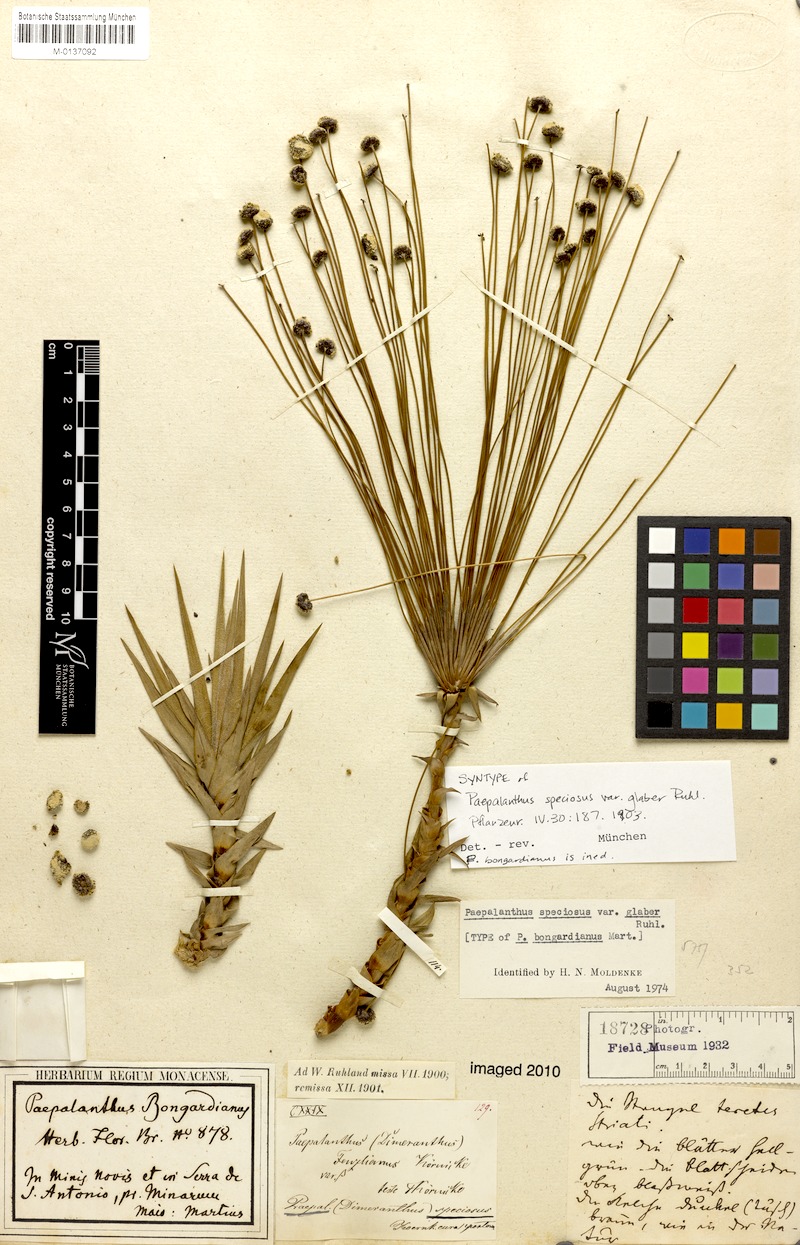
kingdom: Plantae
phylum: Tracheophyta
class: Liliopsida
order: Poales
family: Eriocaulaceae
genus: Paepalanthus
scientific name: Paepalanthus erectifolius
